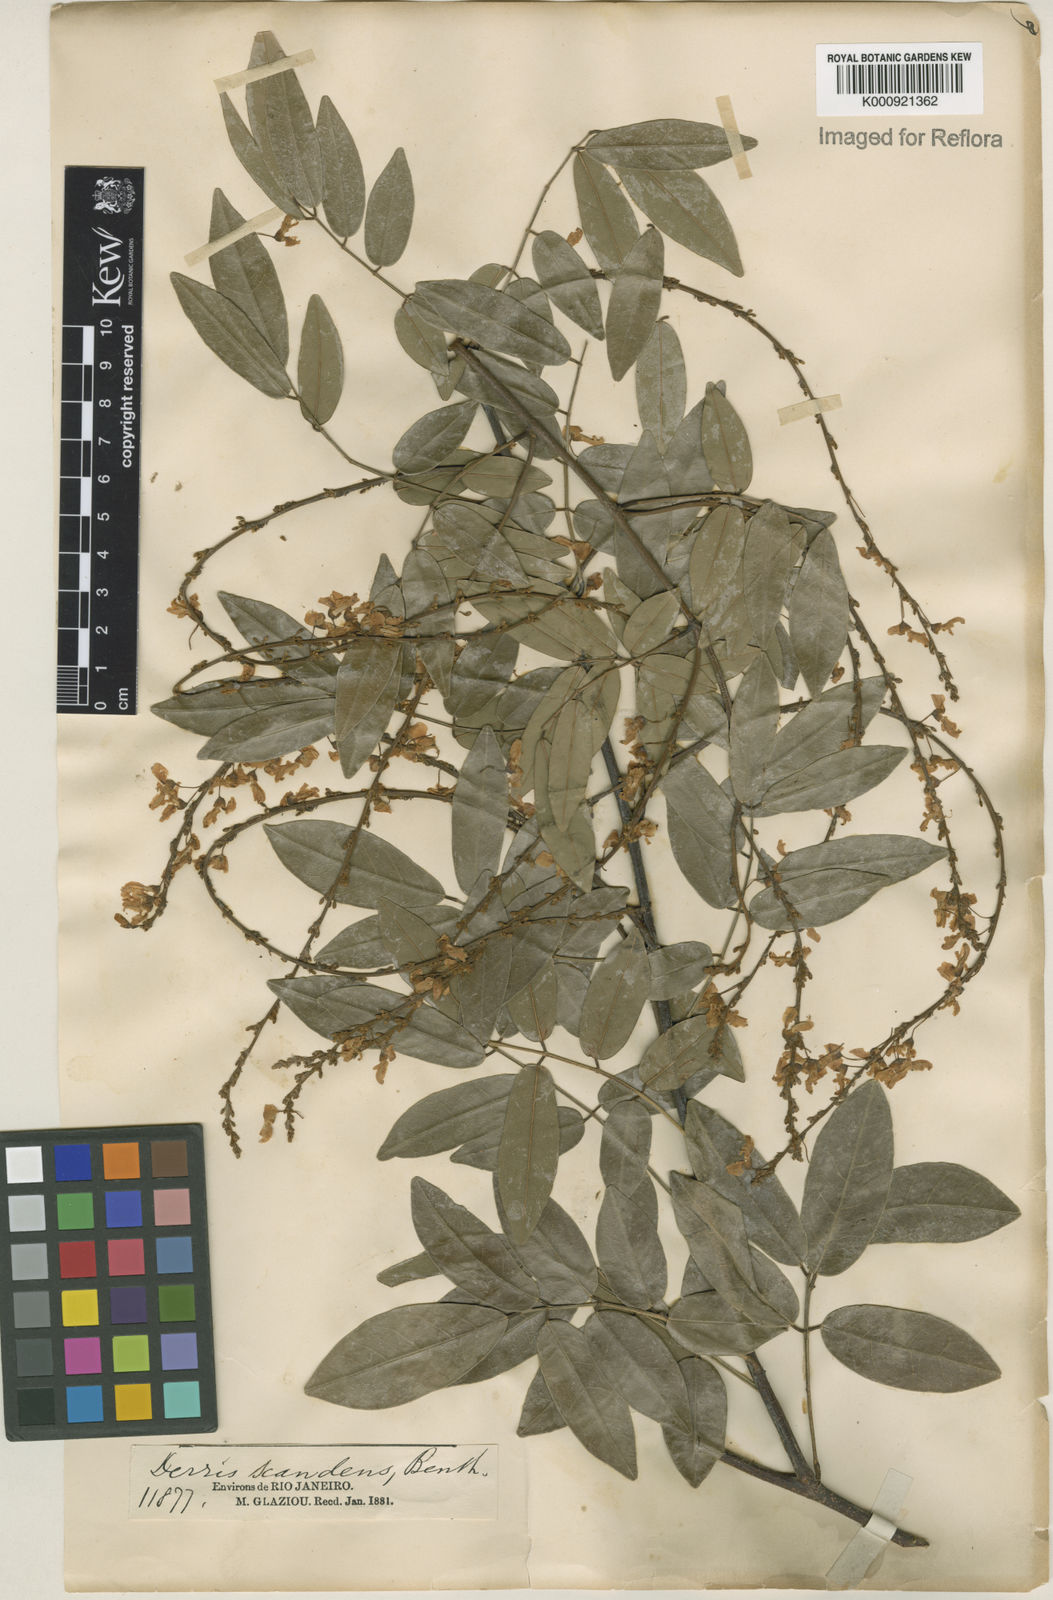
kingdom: Plantae
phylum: Tracheophyta
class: Magnoliopsida
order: Fabales
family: Fabaceae
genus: Deguelia
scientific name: Deguelia scandens
